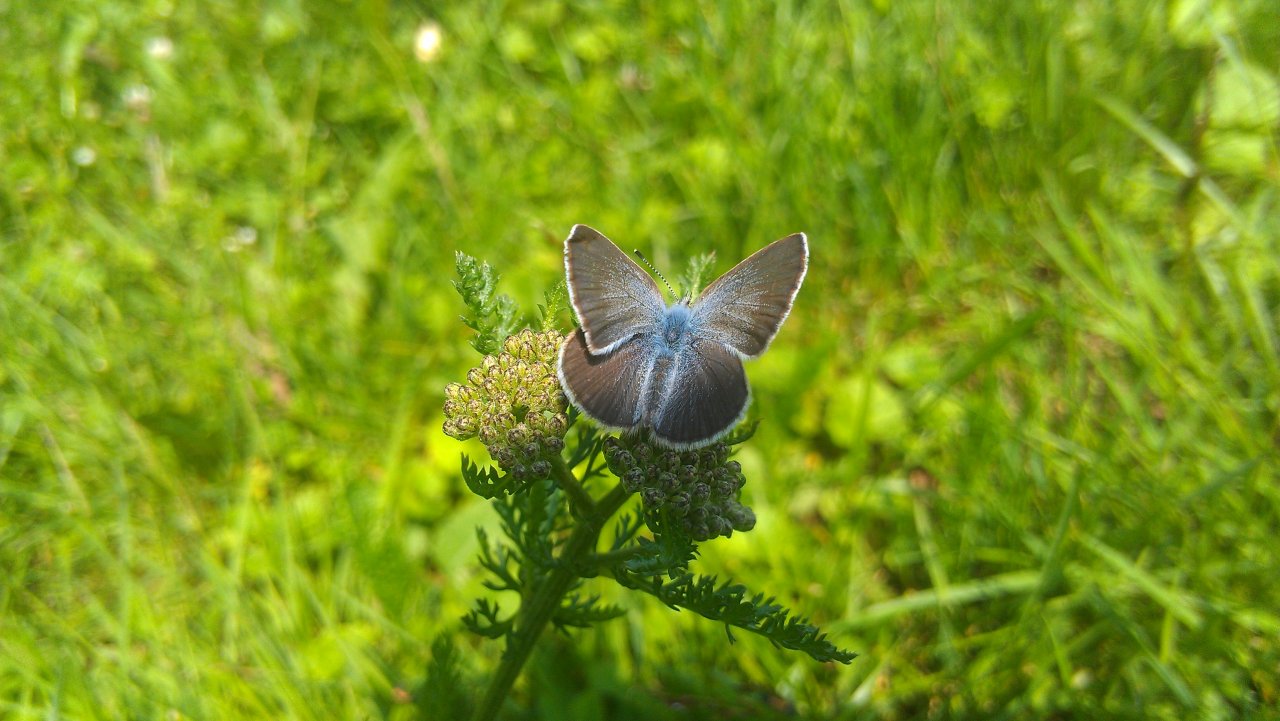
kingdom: Animalia
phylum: Arthropoda
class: Insecta
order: Lepidoptera
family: Lycaenidae
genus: Glaucopsyche
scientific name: Glaucopsyche lygdamus
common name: Silvery Blue
